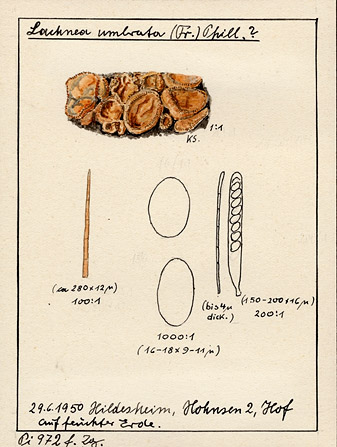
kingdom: Fungi
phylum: Ascomycota
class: Pezizomycetes
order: Pezizales
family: Pyronemataceae
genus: Scutellinia
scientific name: Scutellinia minutella
